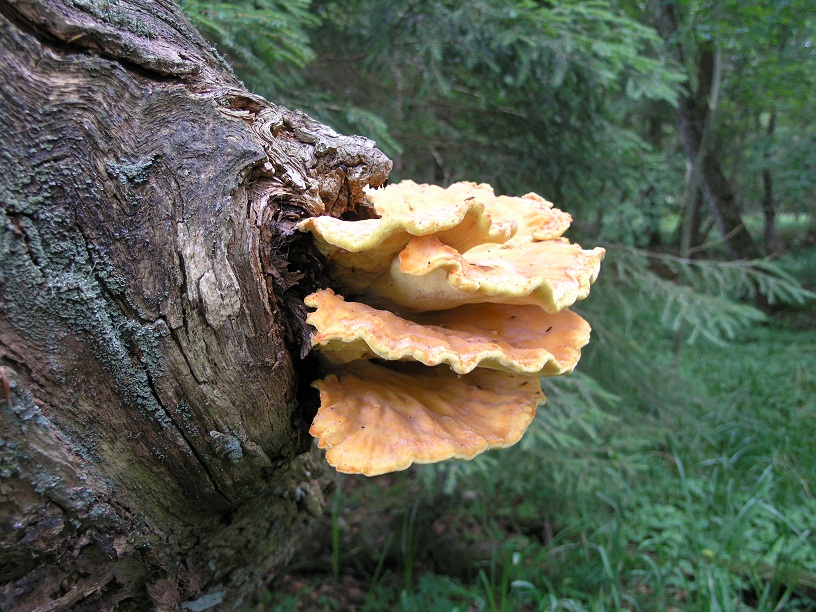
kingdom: Fungi
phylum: Basidiomycota
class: Agaricomycetes
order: Polyporales
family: Laetiporaceae
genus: Laetiporus
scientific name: Laetiporus sulphureus
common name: svovlporesvamp
